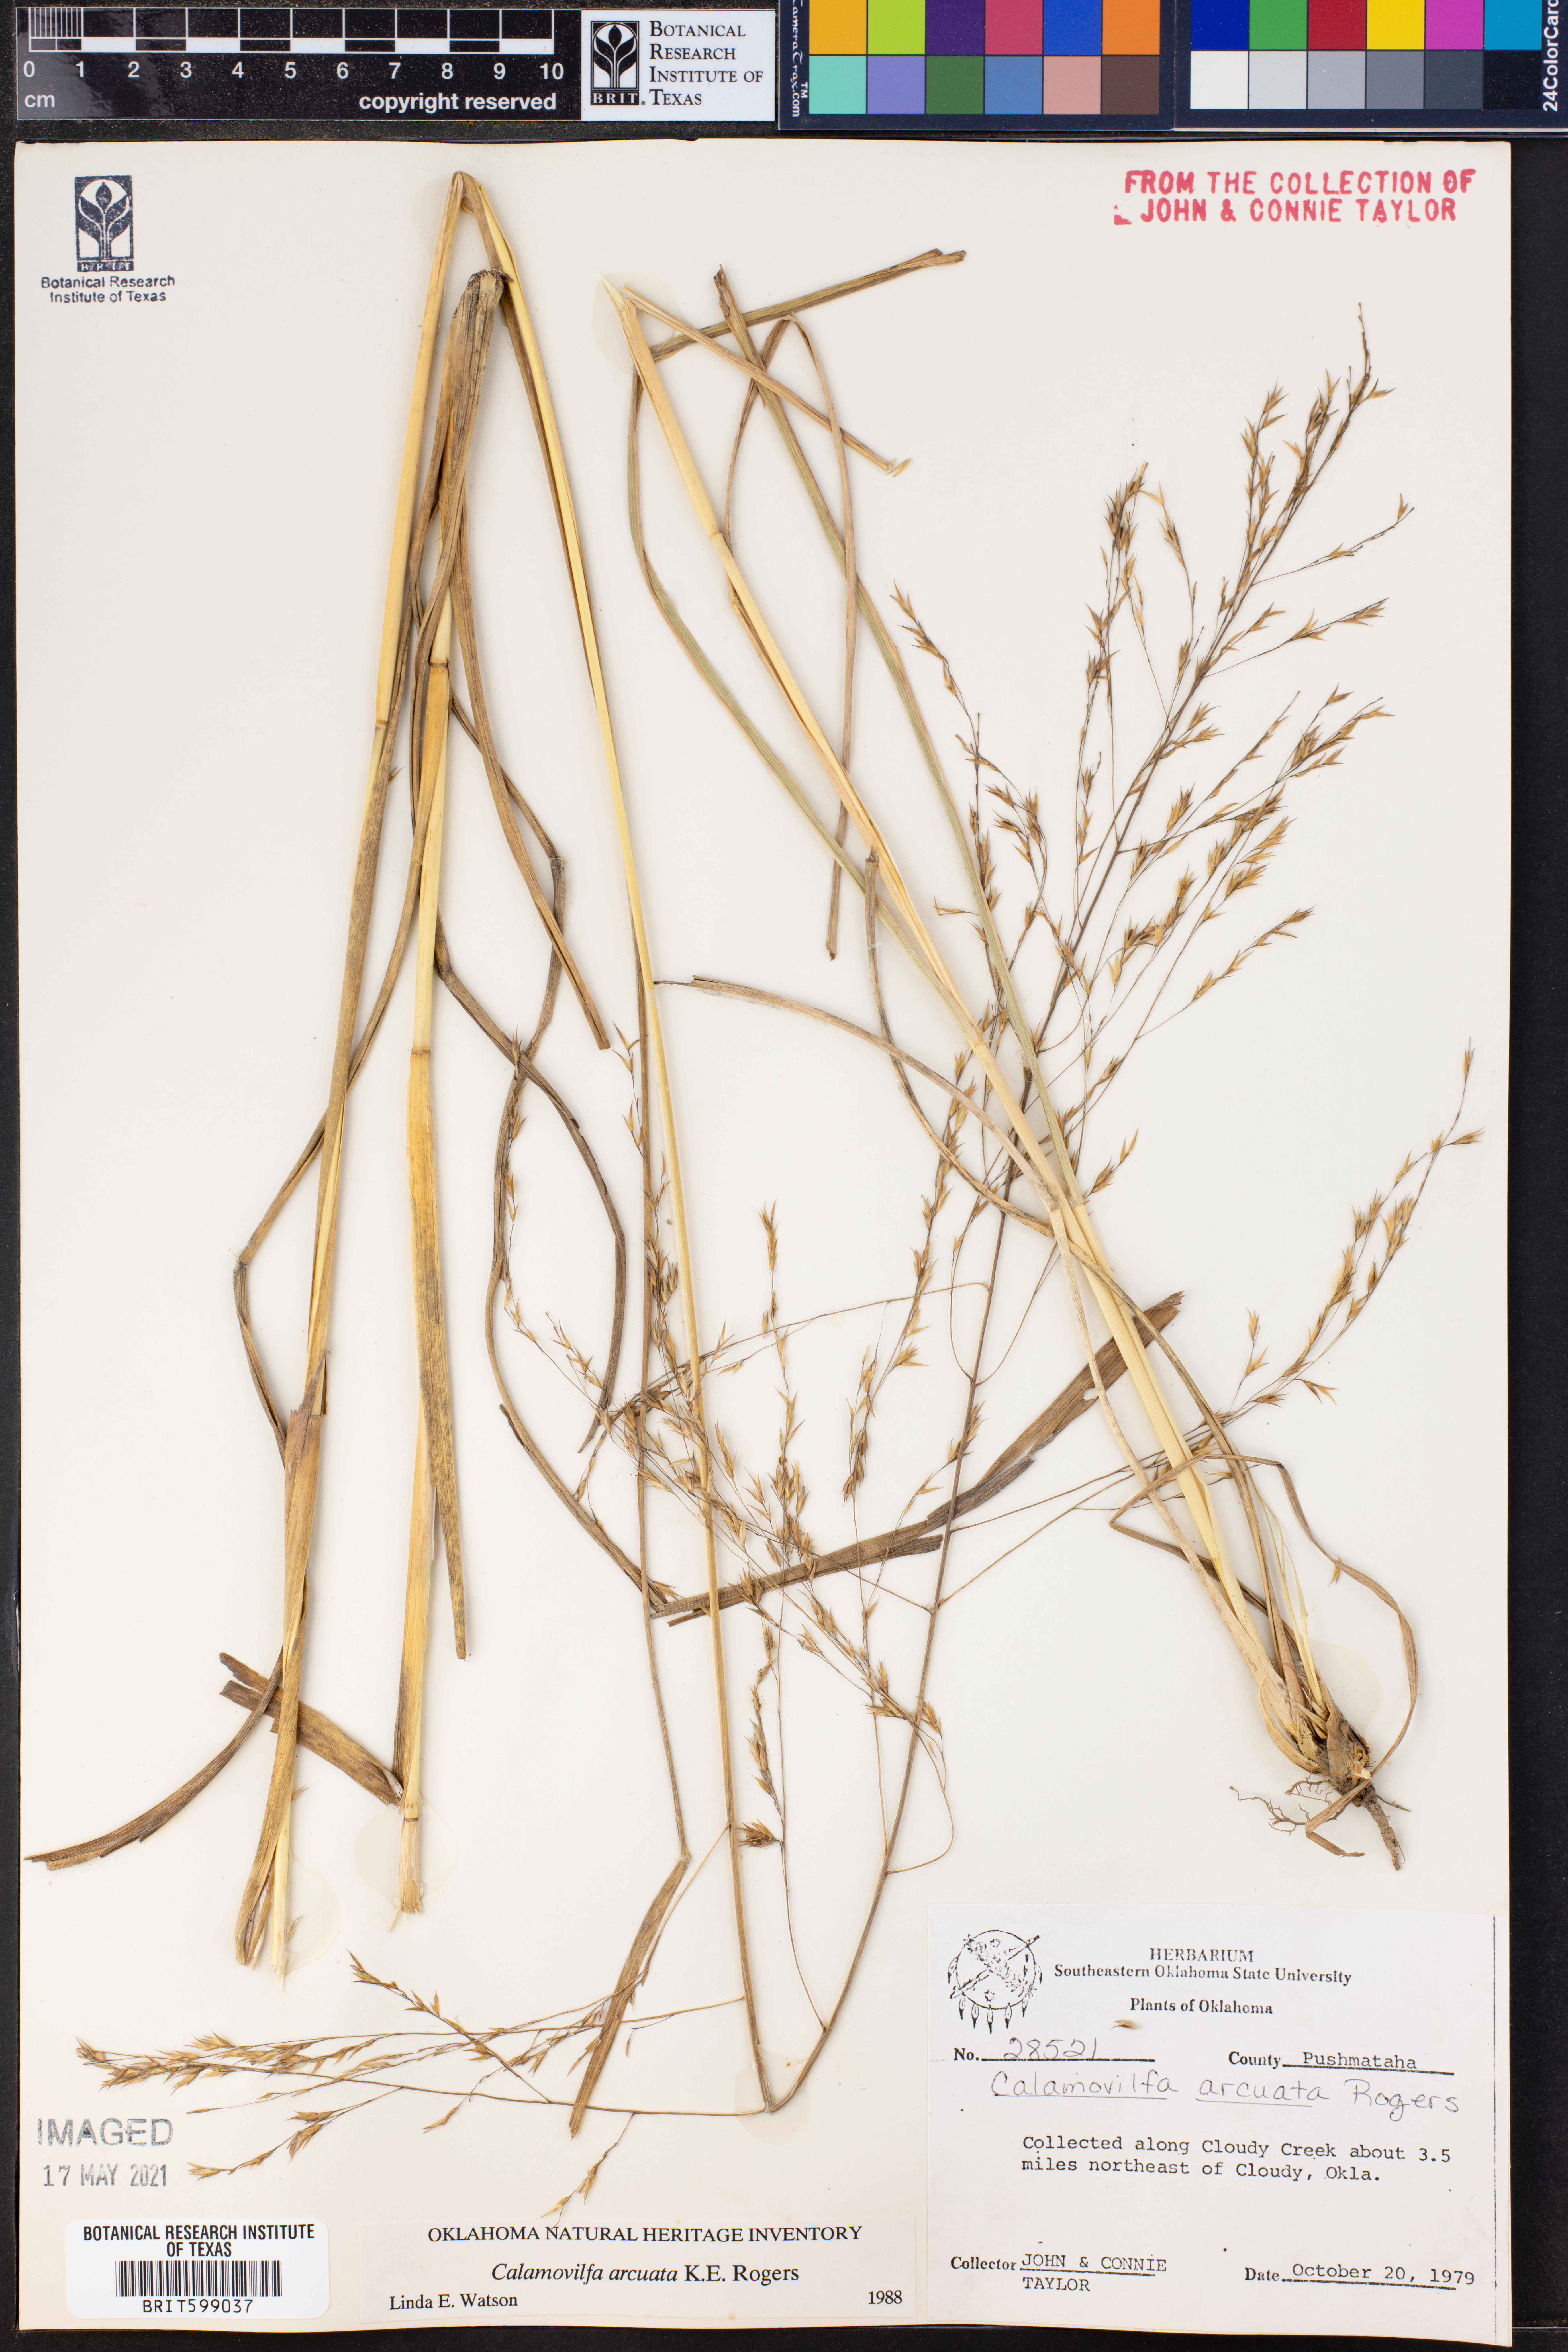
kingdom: Plantae
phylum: Tracheophyta
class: Liliopsida
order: Poales
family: Poaceae
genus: Sporobolus
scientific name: Sporobolus arcuatus
